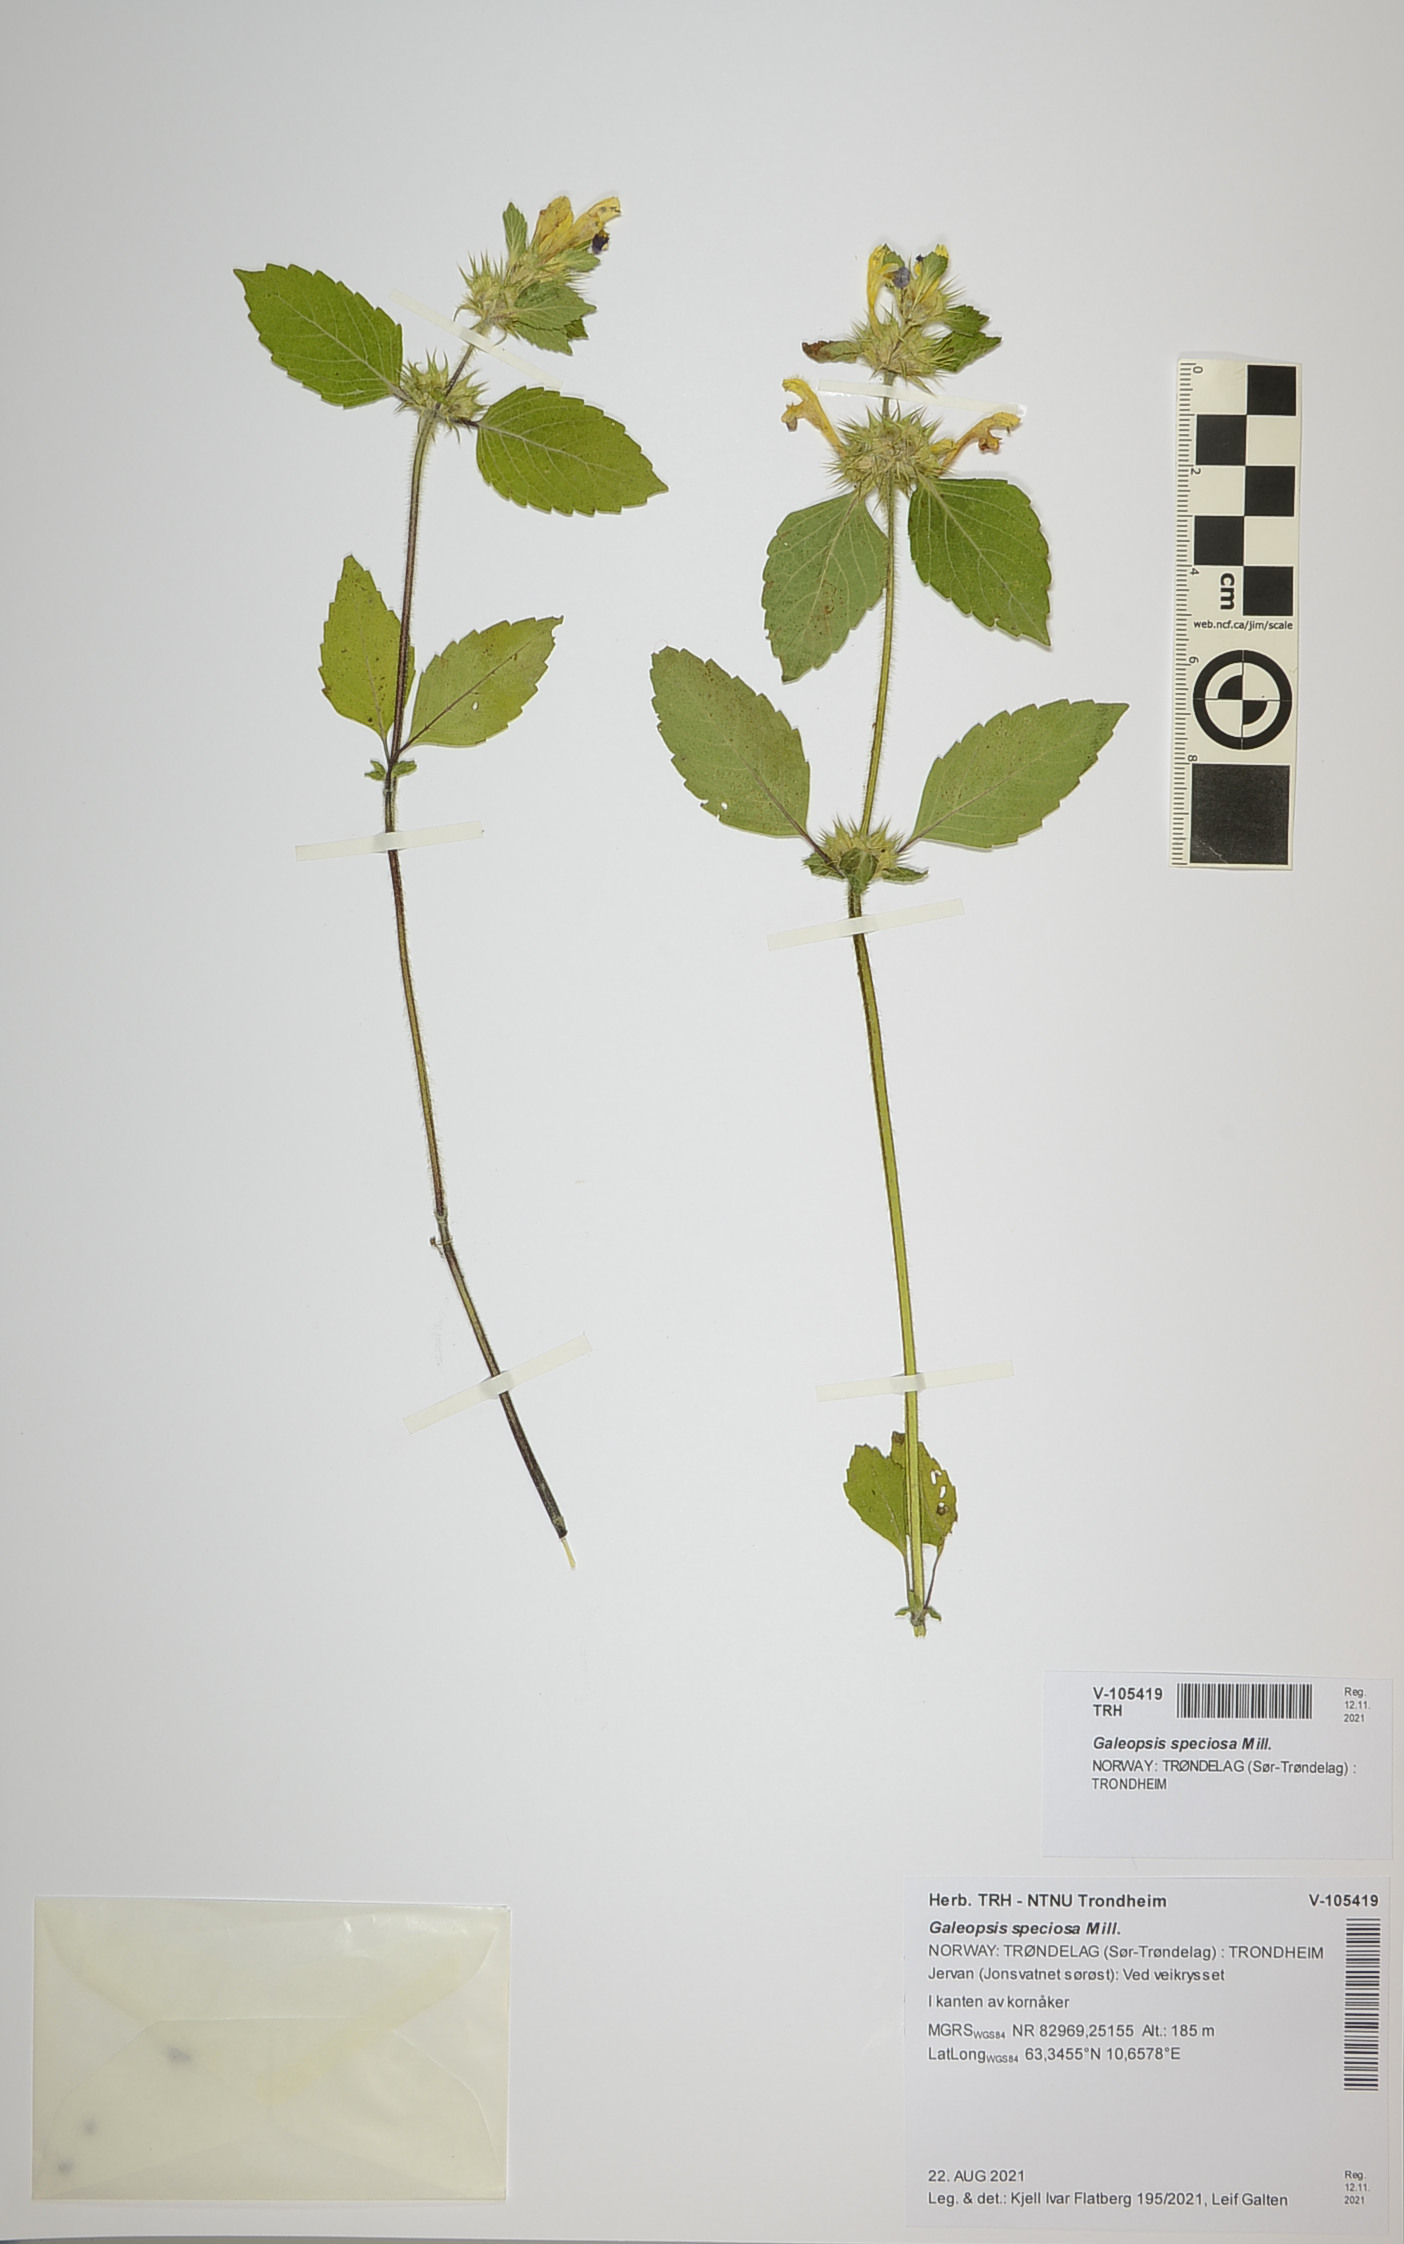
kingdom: Plantae
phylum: Tracheophyta
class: Magnoliopsida
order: Lamiales
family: Lamiaceae
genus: Galeopsis
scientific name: Galeopsis speciosa
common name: Large-flowered hemp-nettle
